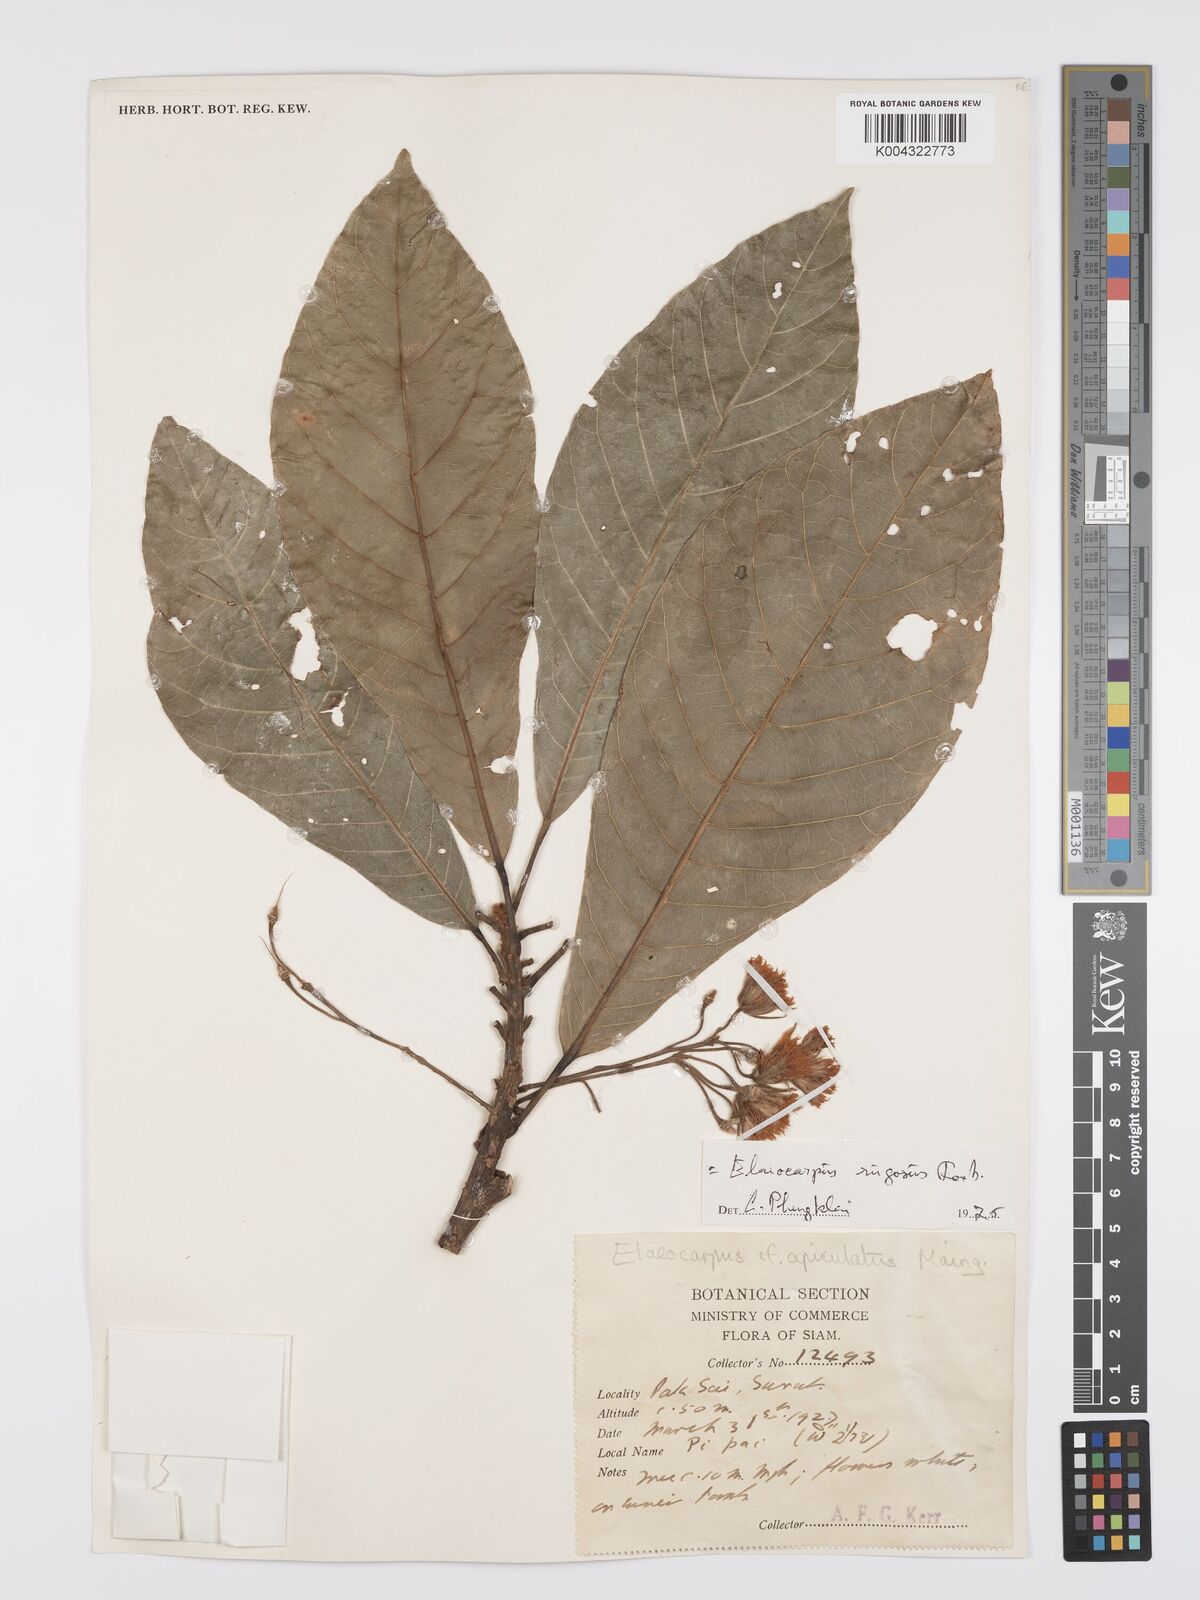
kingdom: Plantae
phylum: Tracheophyta
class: Magnoliopsida
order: Oxalidales
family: Elaeocarpaceae
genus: Elaeocarpus
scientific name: Elaeocarpus rugosus
